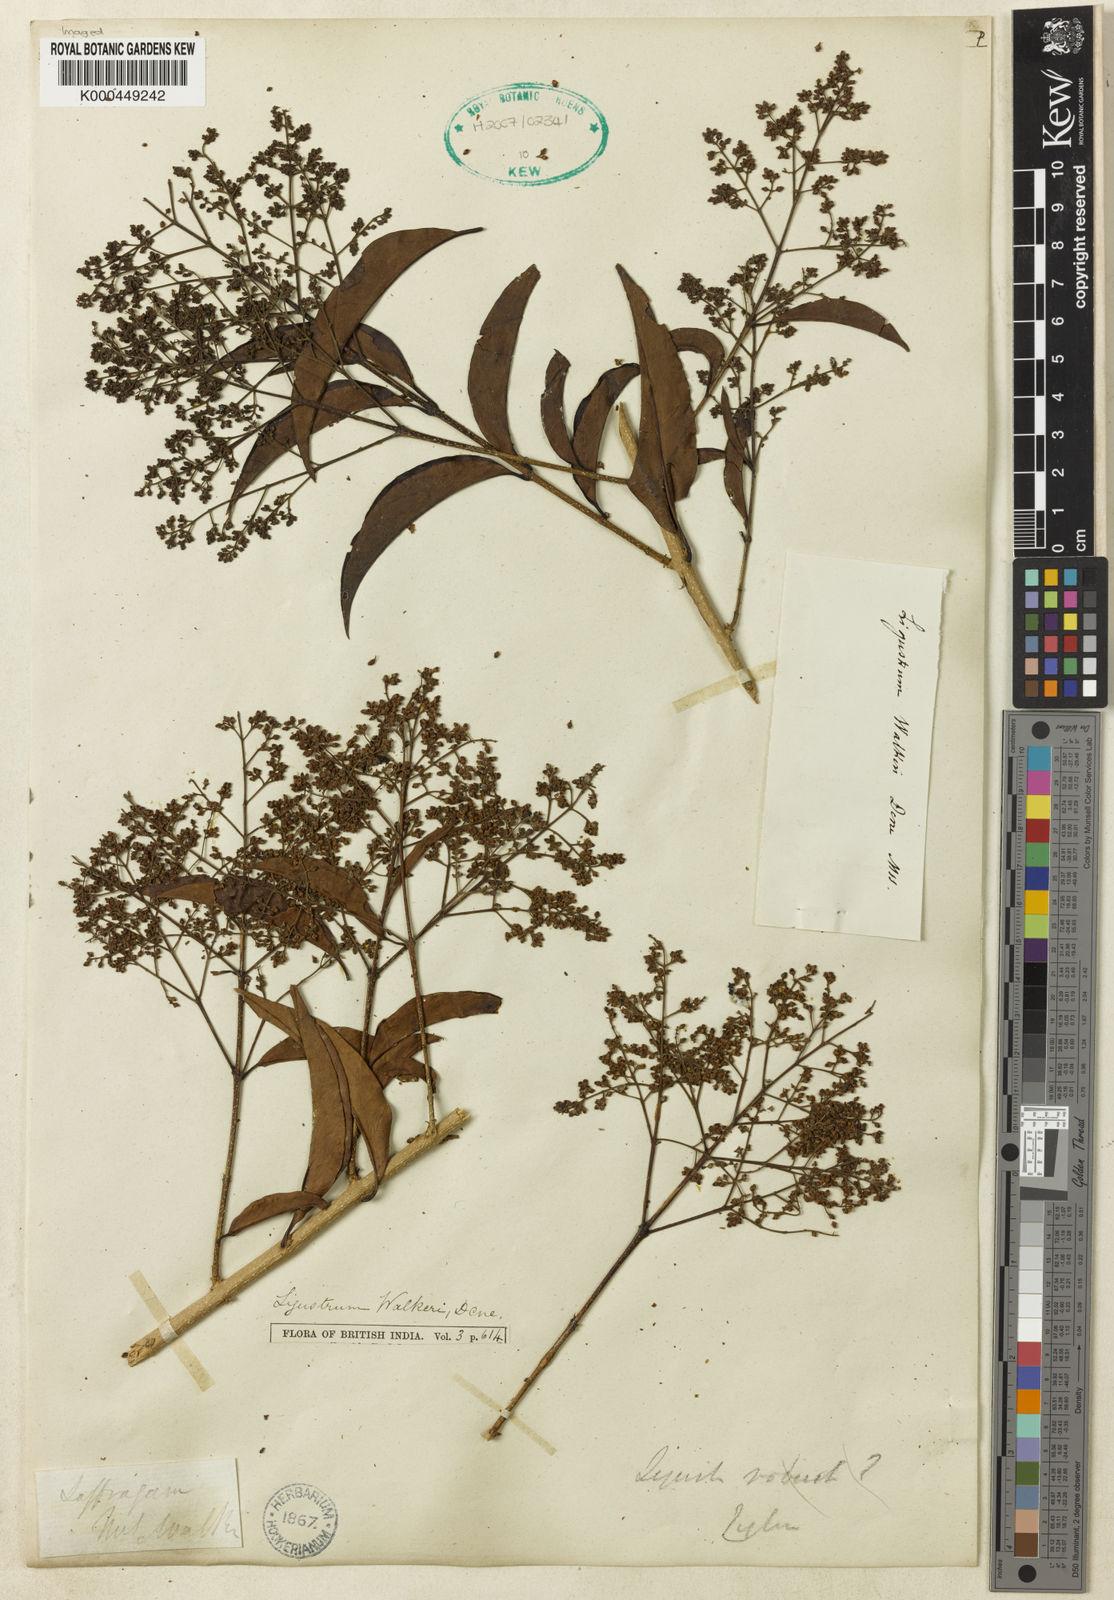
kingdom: Plantae
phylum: Tracheophyta
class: Magnoliopsida
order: Lamiales
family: Oleaceae
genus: Ligustrum
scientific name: Ligustrum robustum
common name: Tree privet
